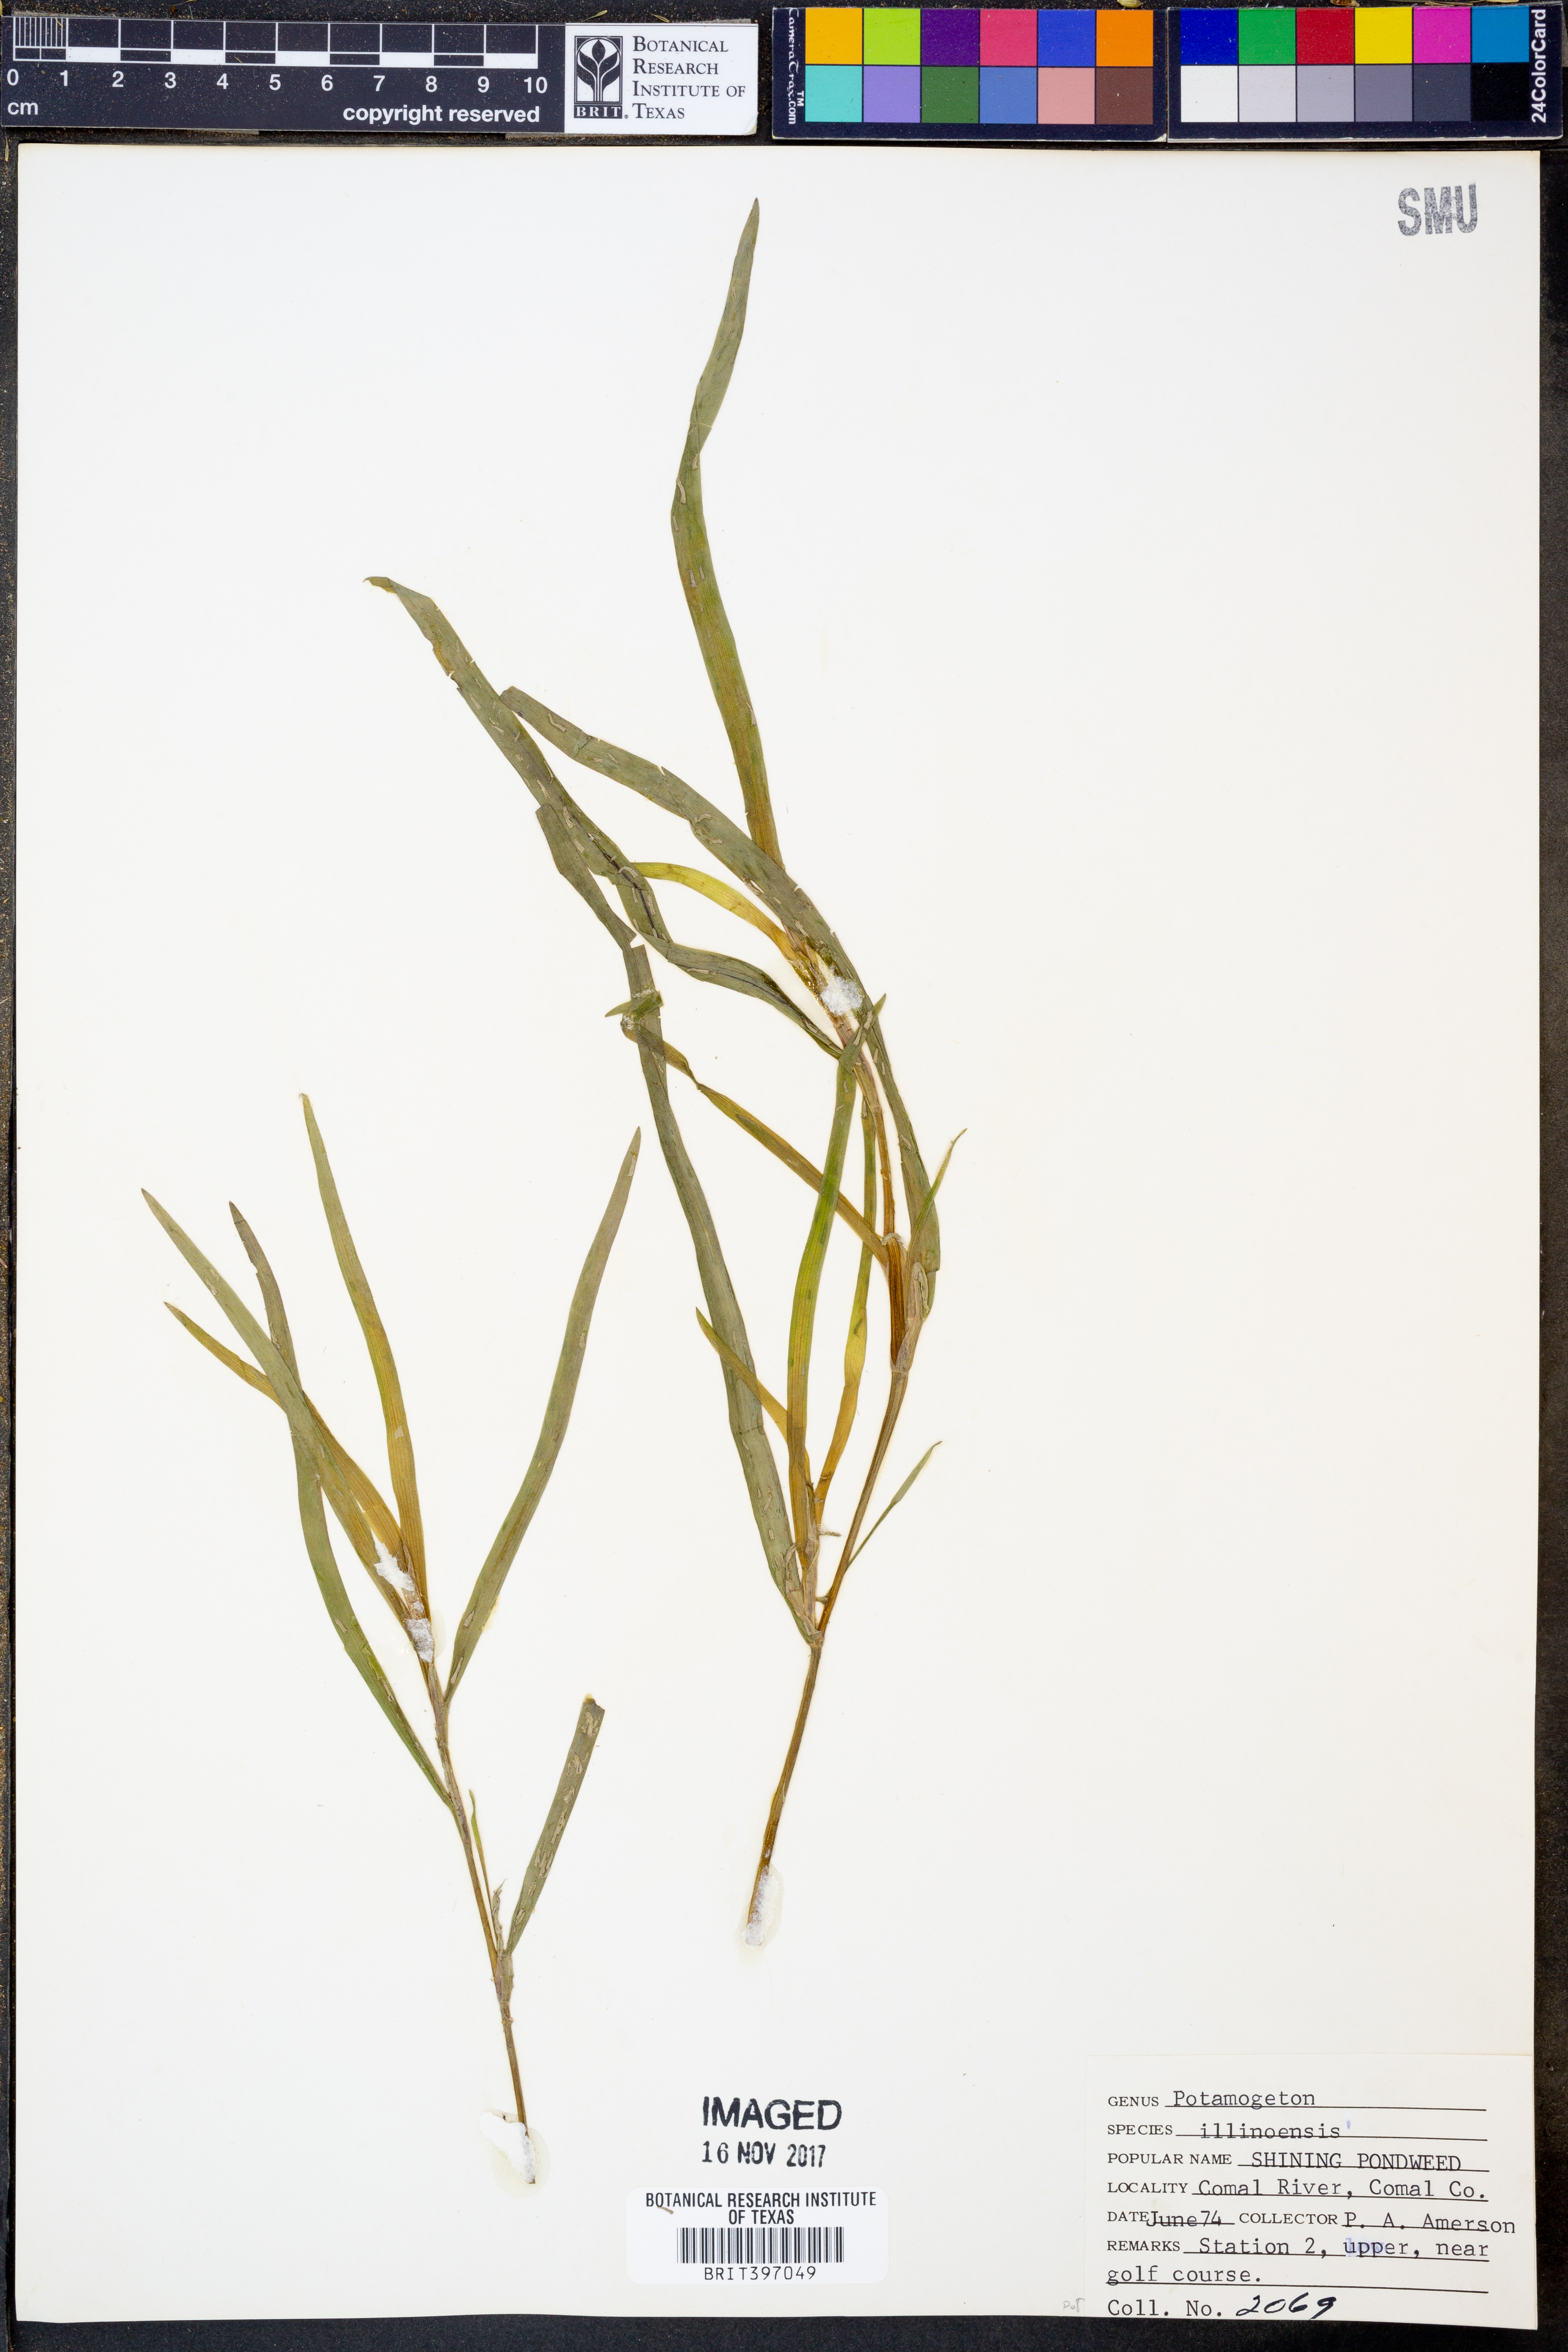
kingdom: Plantae
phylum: Tracheophyta
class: Liliopsida
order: Commelinales
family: Pontederiaceae
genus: Heteranthera
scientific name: Heteranthera dubia
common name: Grass-leaved mud plantain
